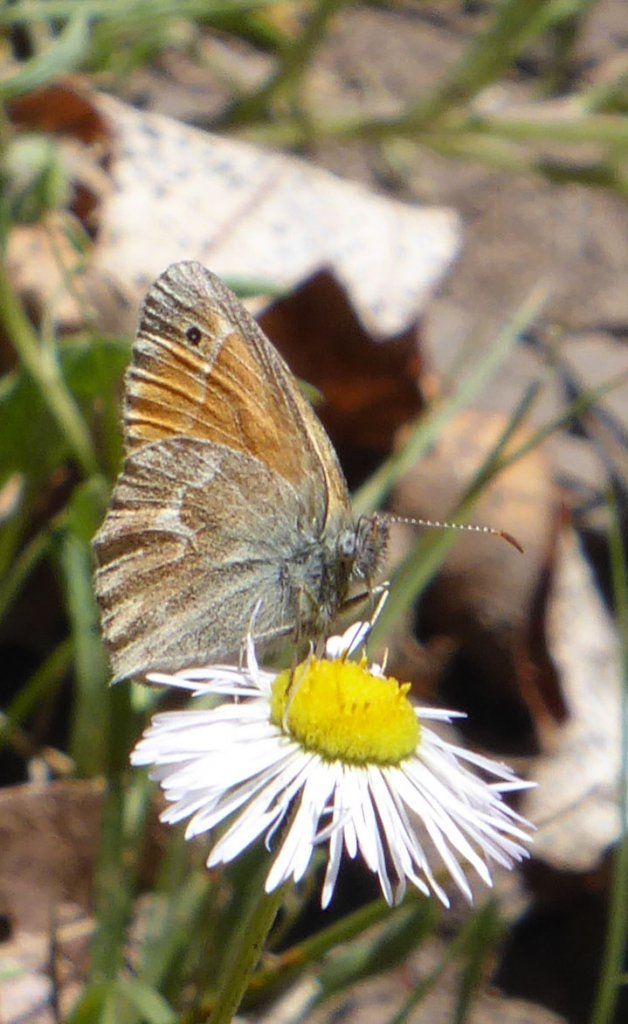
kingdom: Animalia
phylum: Arthropoda
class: Insecta
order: Lepidoptera
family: Nymphalidae
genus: Coenonympha
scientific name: Coenonympha tullia
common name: Large Heath
